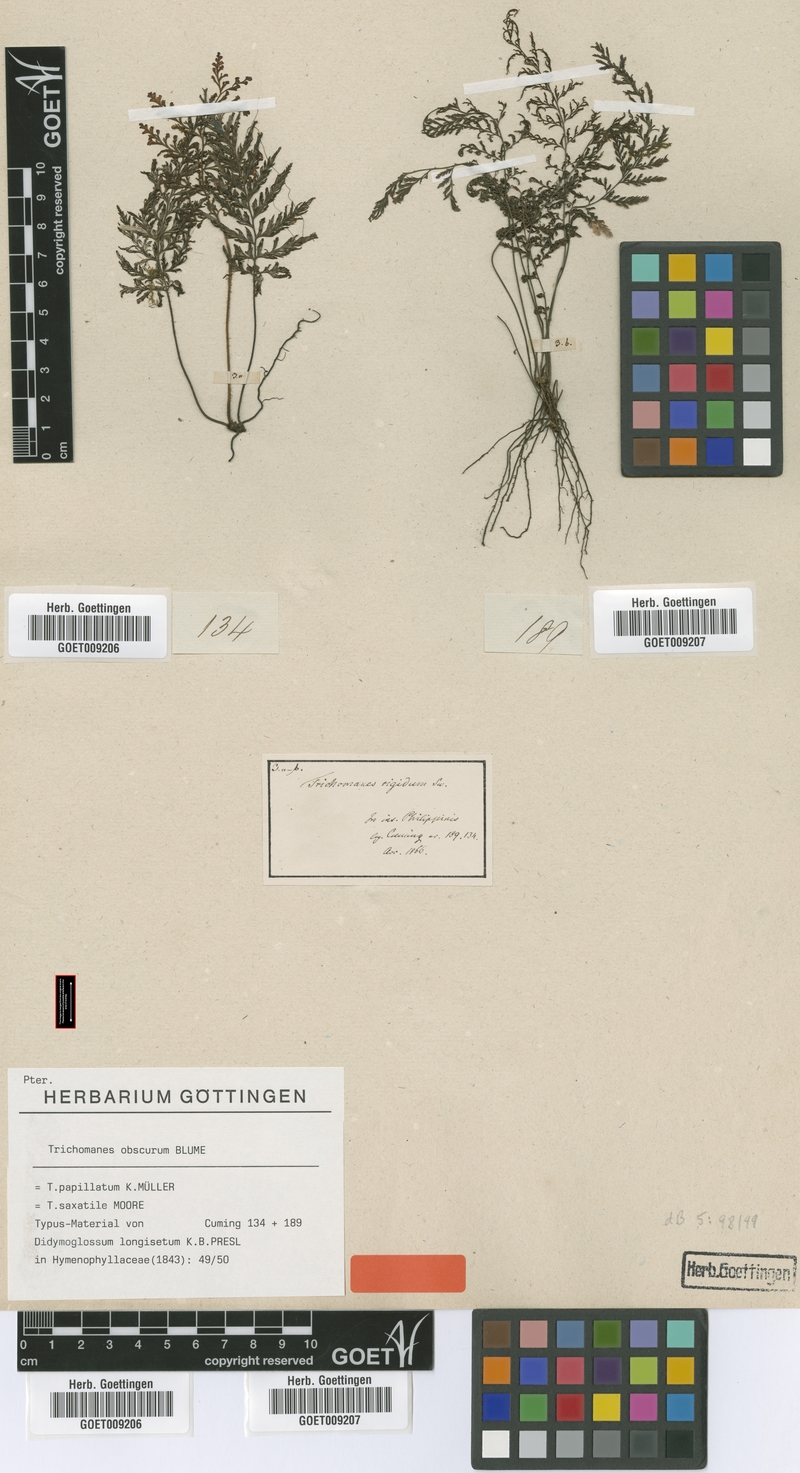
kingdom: Plantae
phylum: Tracheophyta
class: Polypodiopsida
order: Hymenophyllales
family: Hymenophyllaceae
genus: Abrodictyum
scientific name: Abrodictyum obscurum
